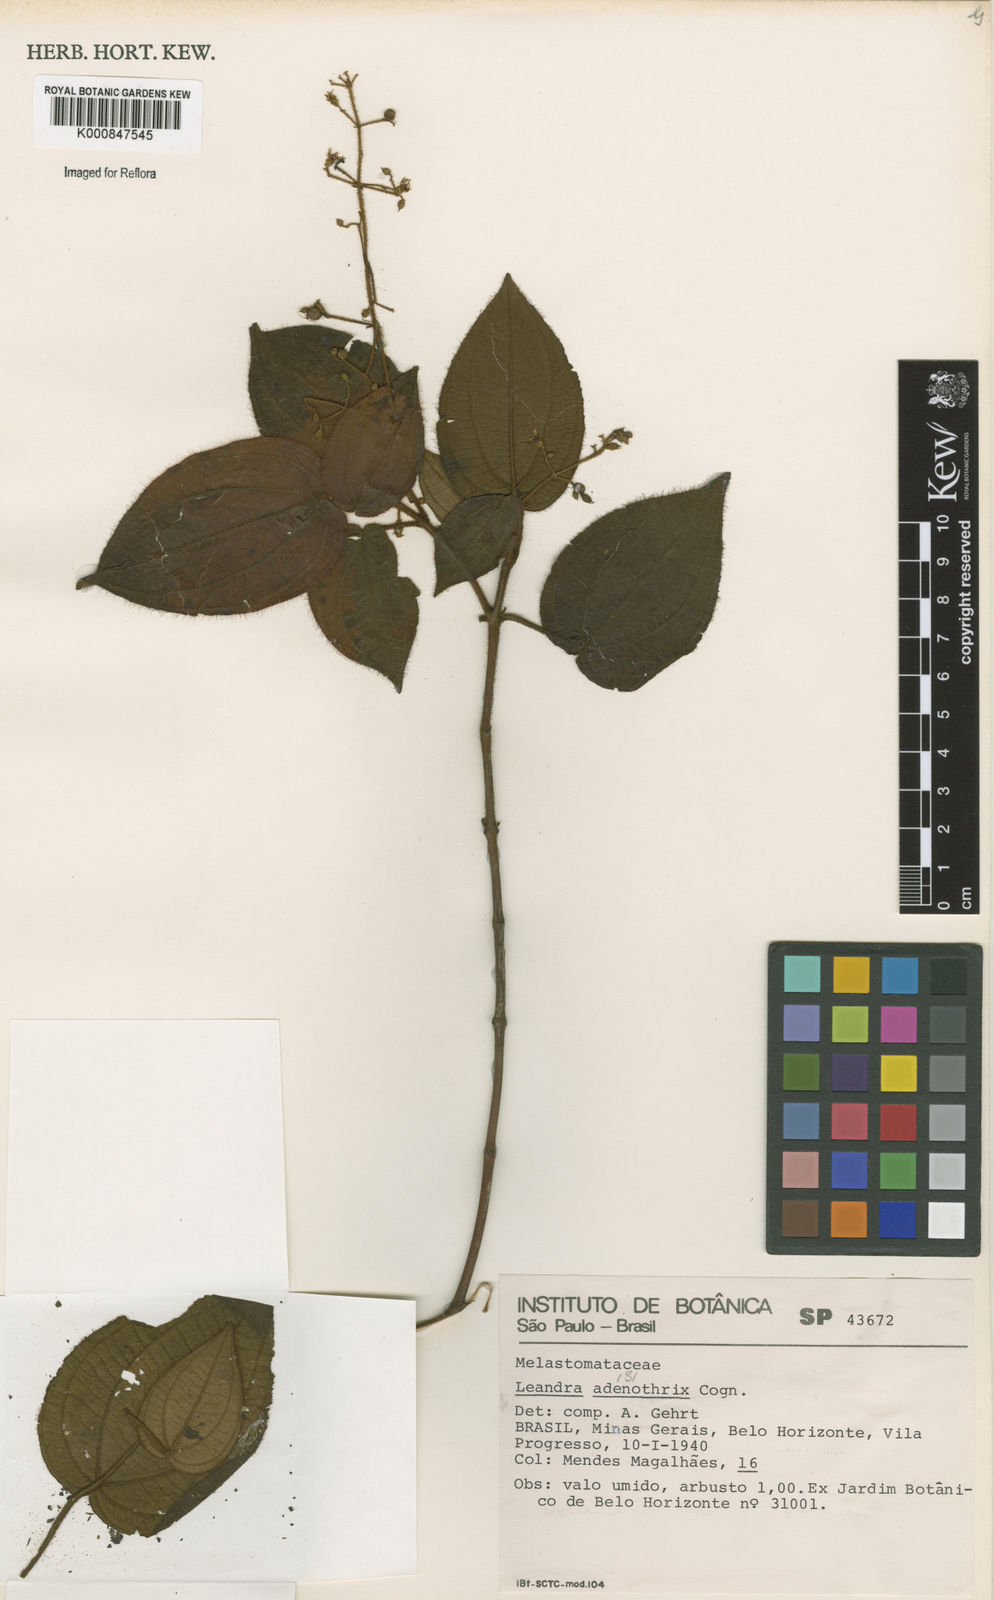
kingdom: Plantae
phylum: Tracheophyta
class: Magnoliopsida
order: Myrtales
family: Melastomataceae
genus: Miconia
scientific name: Miconia adenothrix
